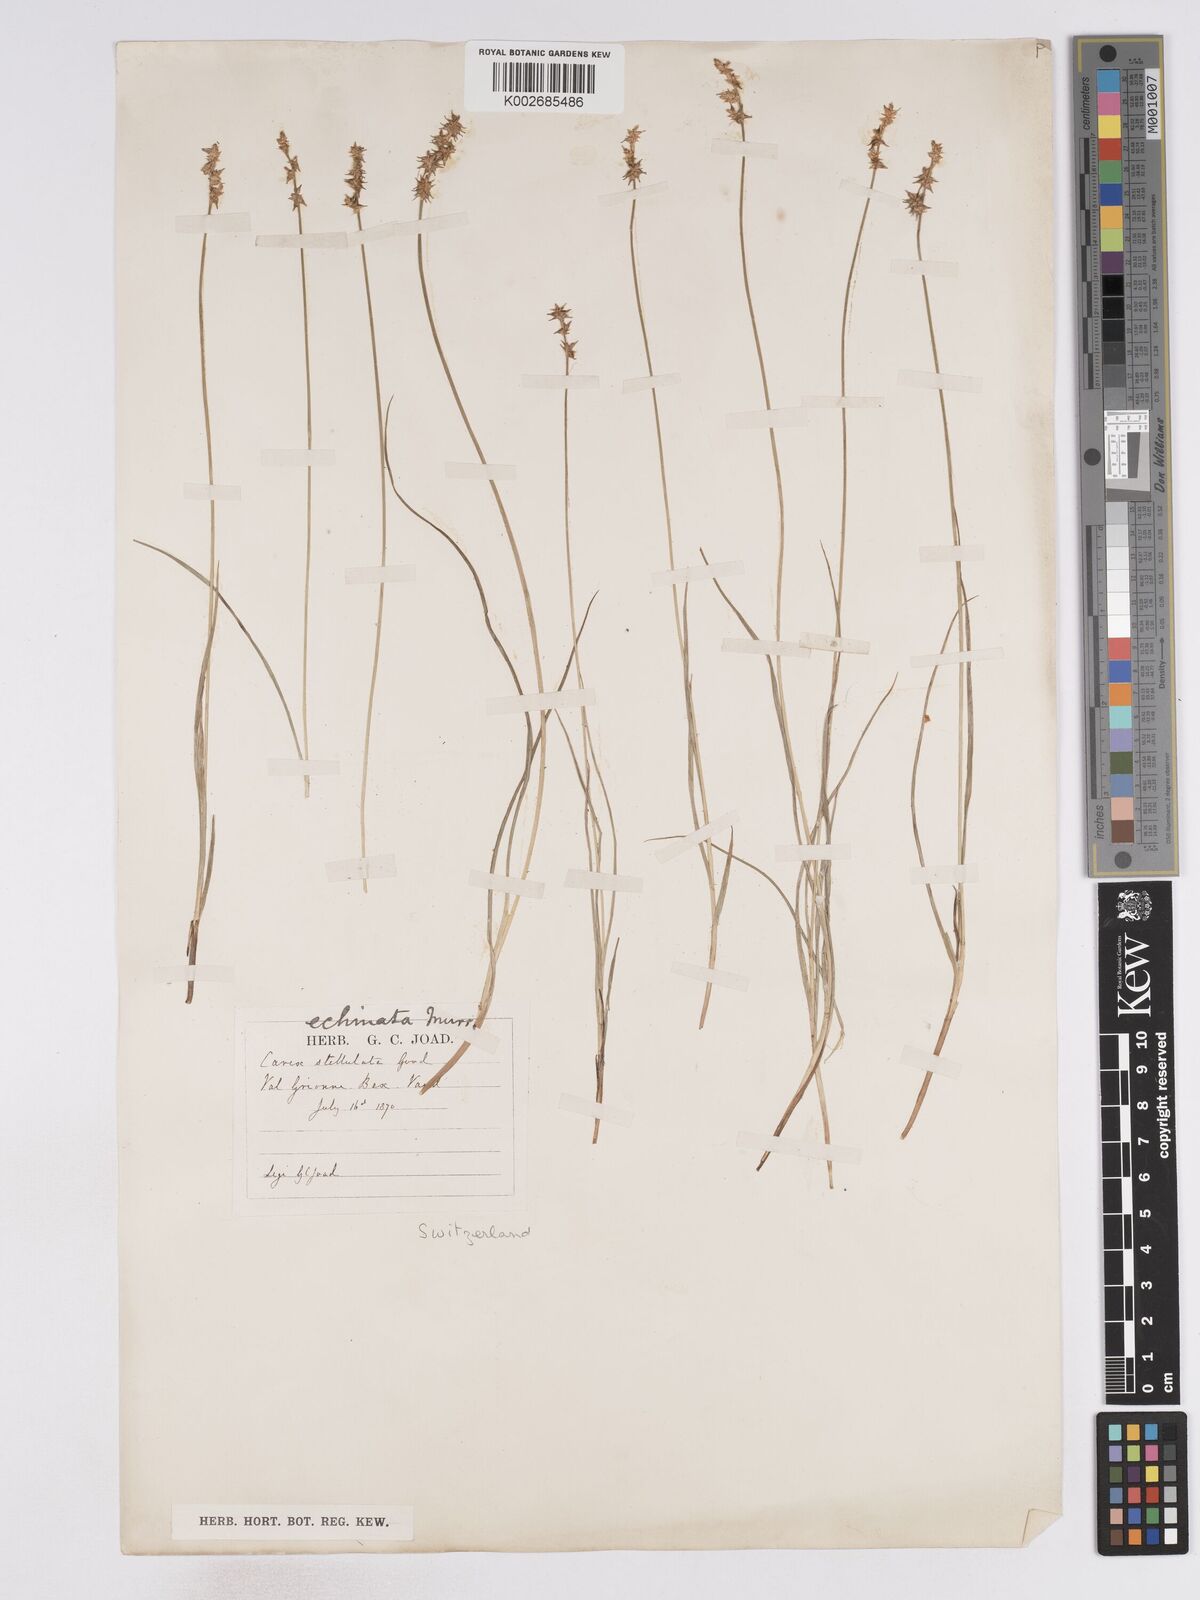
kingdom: Plantae
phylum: Tracheophyta
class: Liliopsida
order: Poales
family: Cyperaceae
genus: Carex
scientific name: Carex echinata
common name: Star sedge
